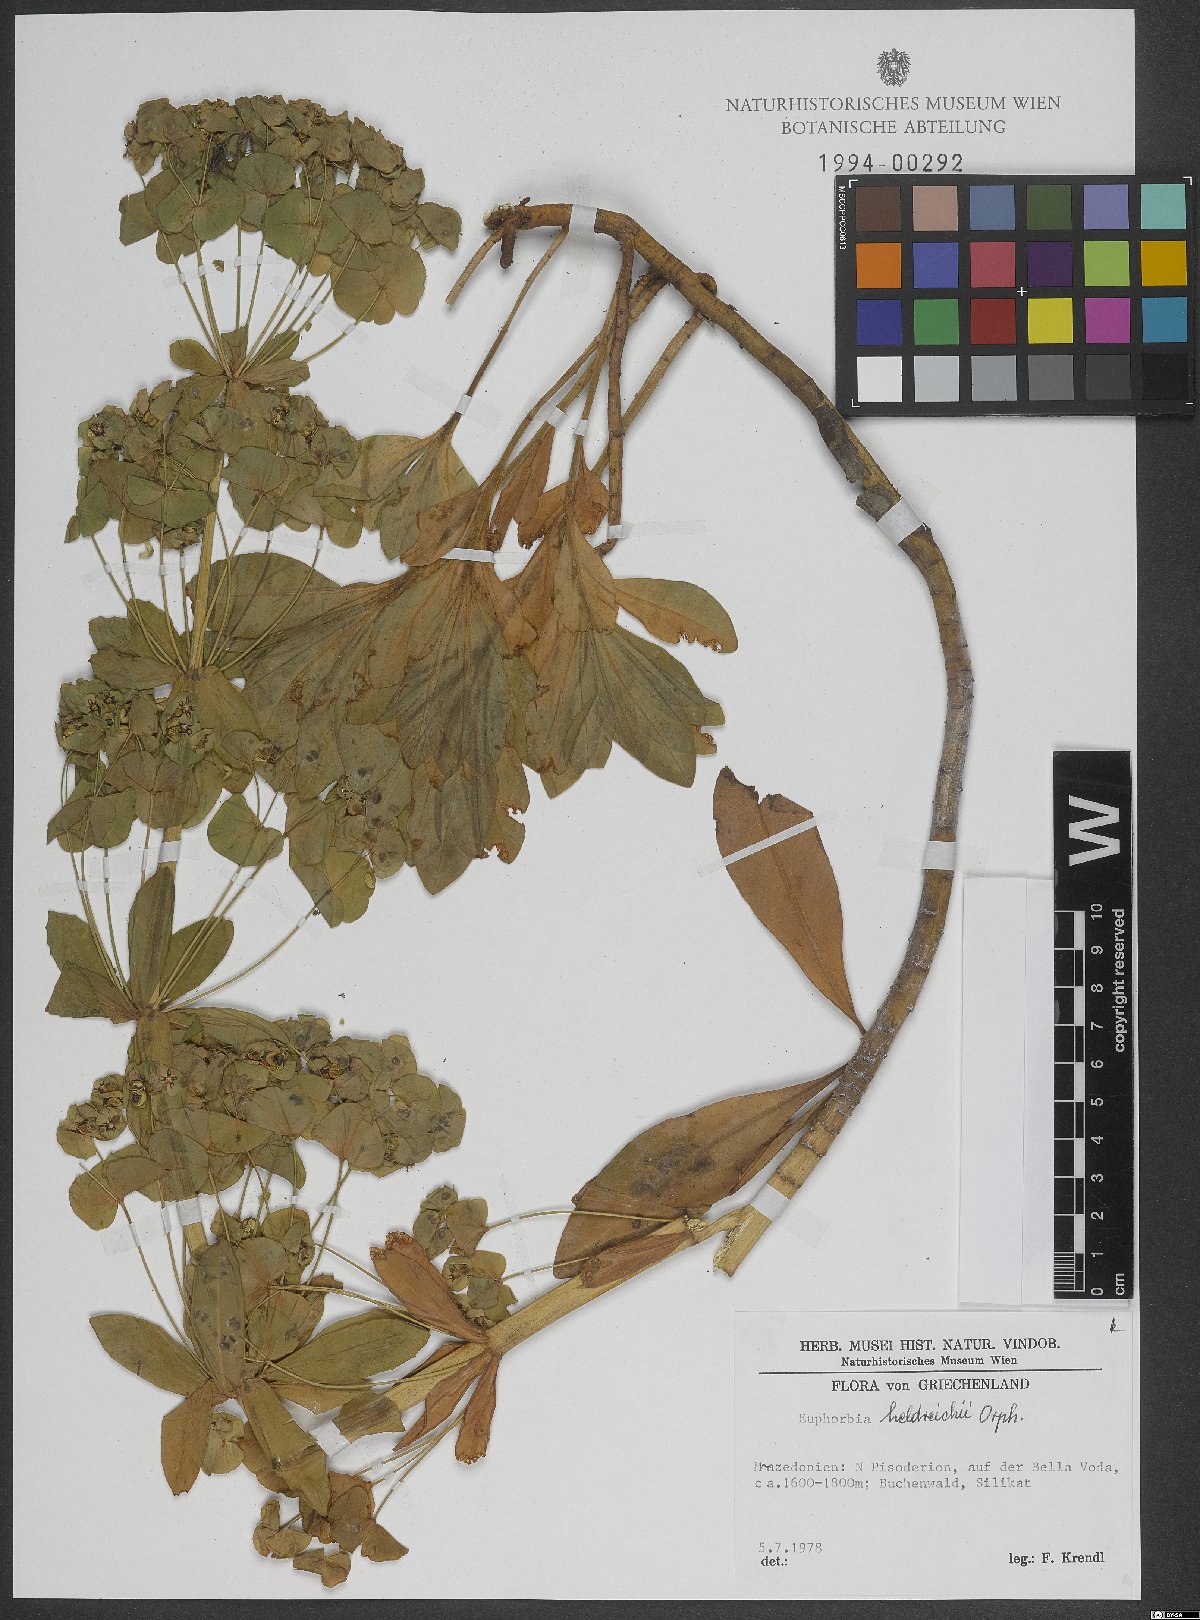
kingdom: Plantae
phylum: Tracheophyta
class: Magnoliopsida
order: Malpighiales
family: Euphorbiaceae
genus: Euphorbia
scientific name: Euphorbia heldreichii
